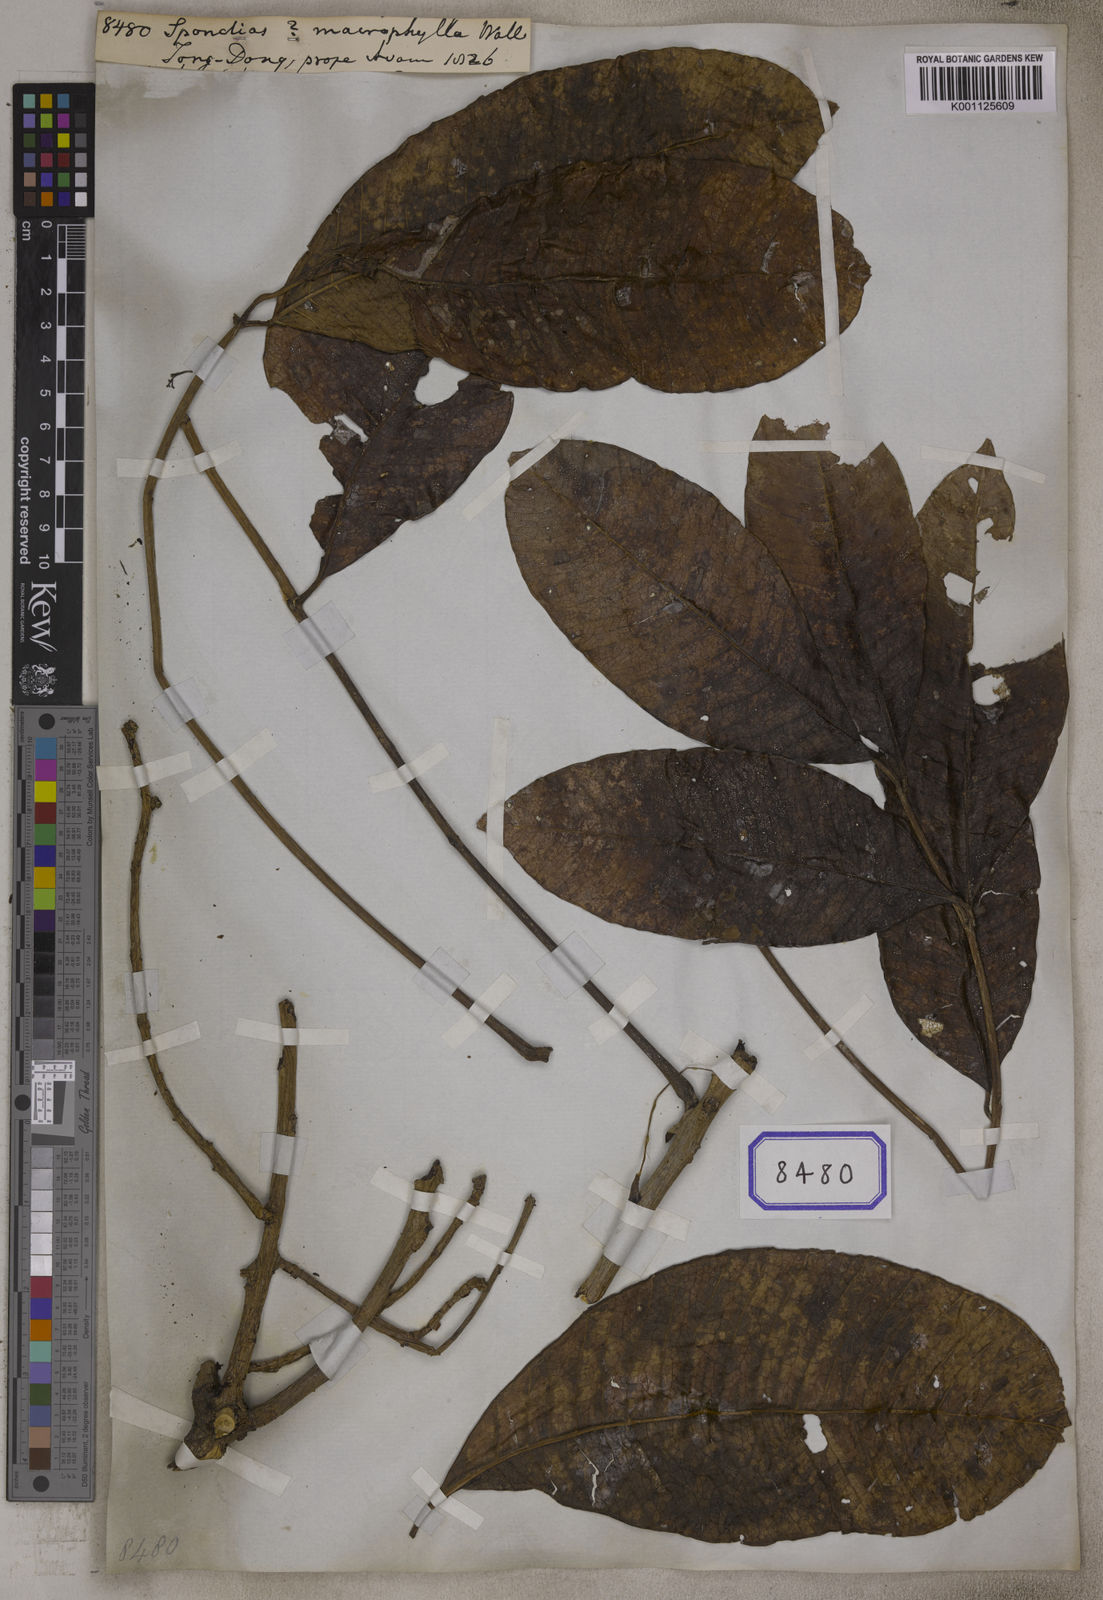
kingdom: Plantae
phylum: Tracheophyta
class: Magnoliopsida
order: Sapindales
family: Anacardiaceae
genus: Spondias
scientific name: Spondias pinnata
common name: Common hog-plum
